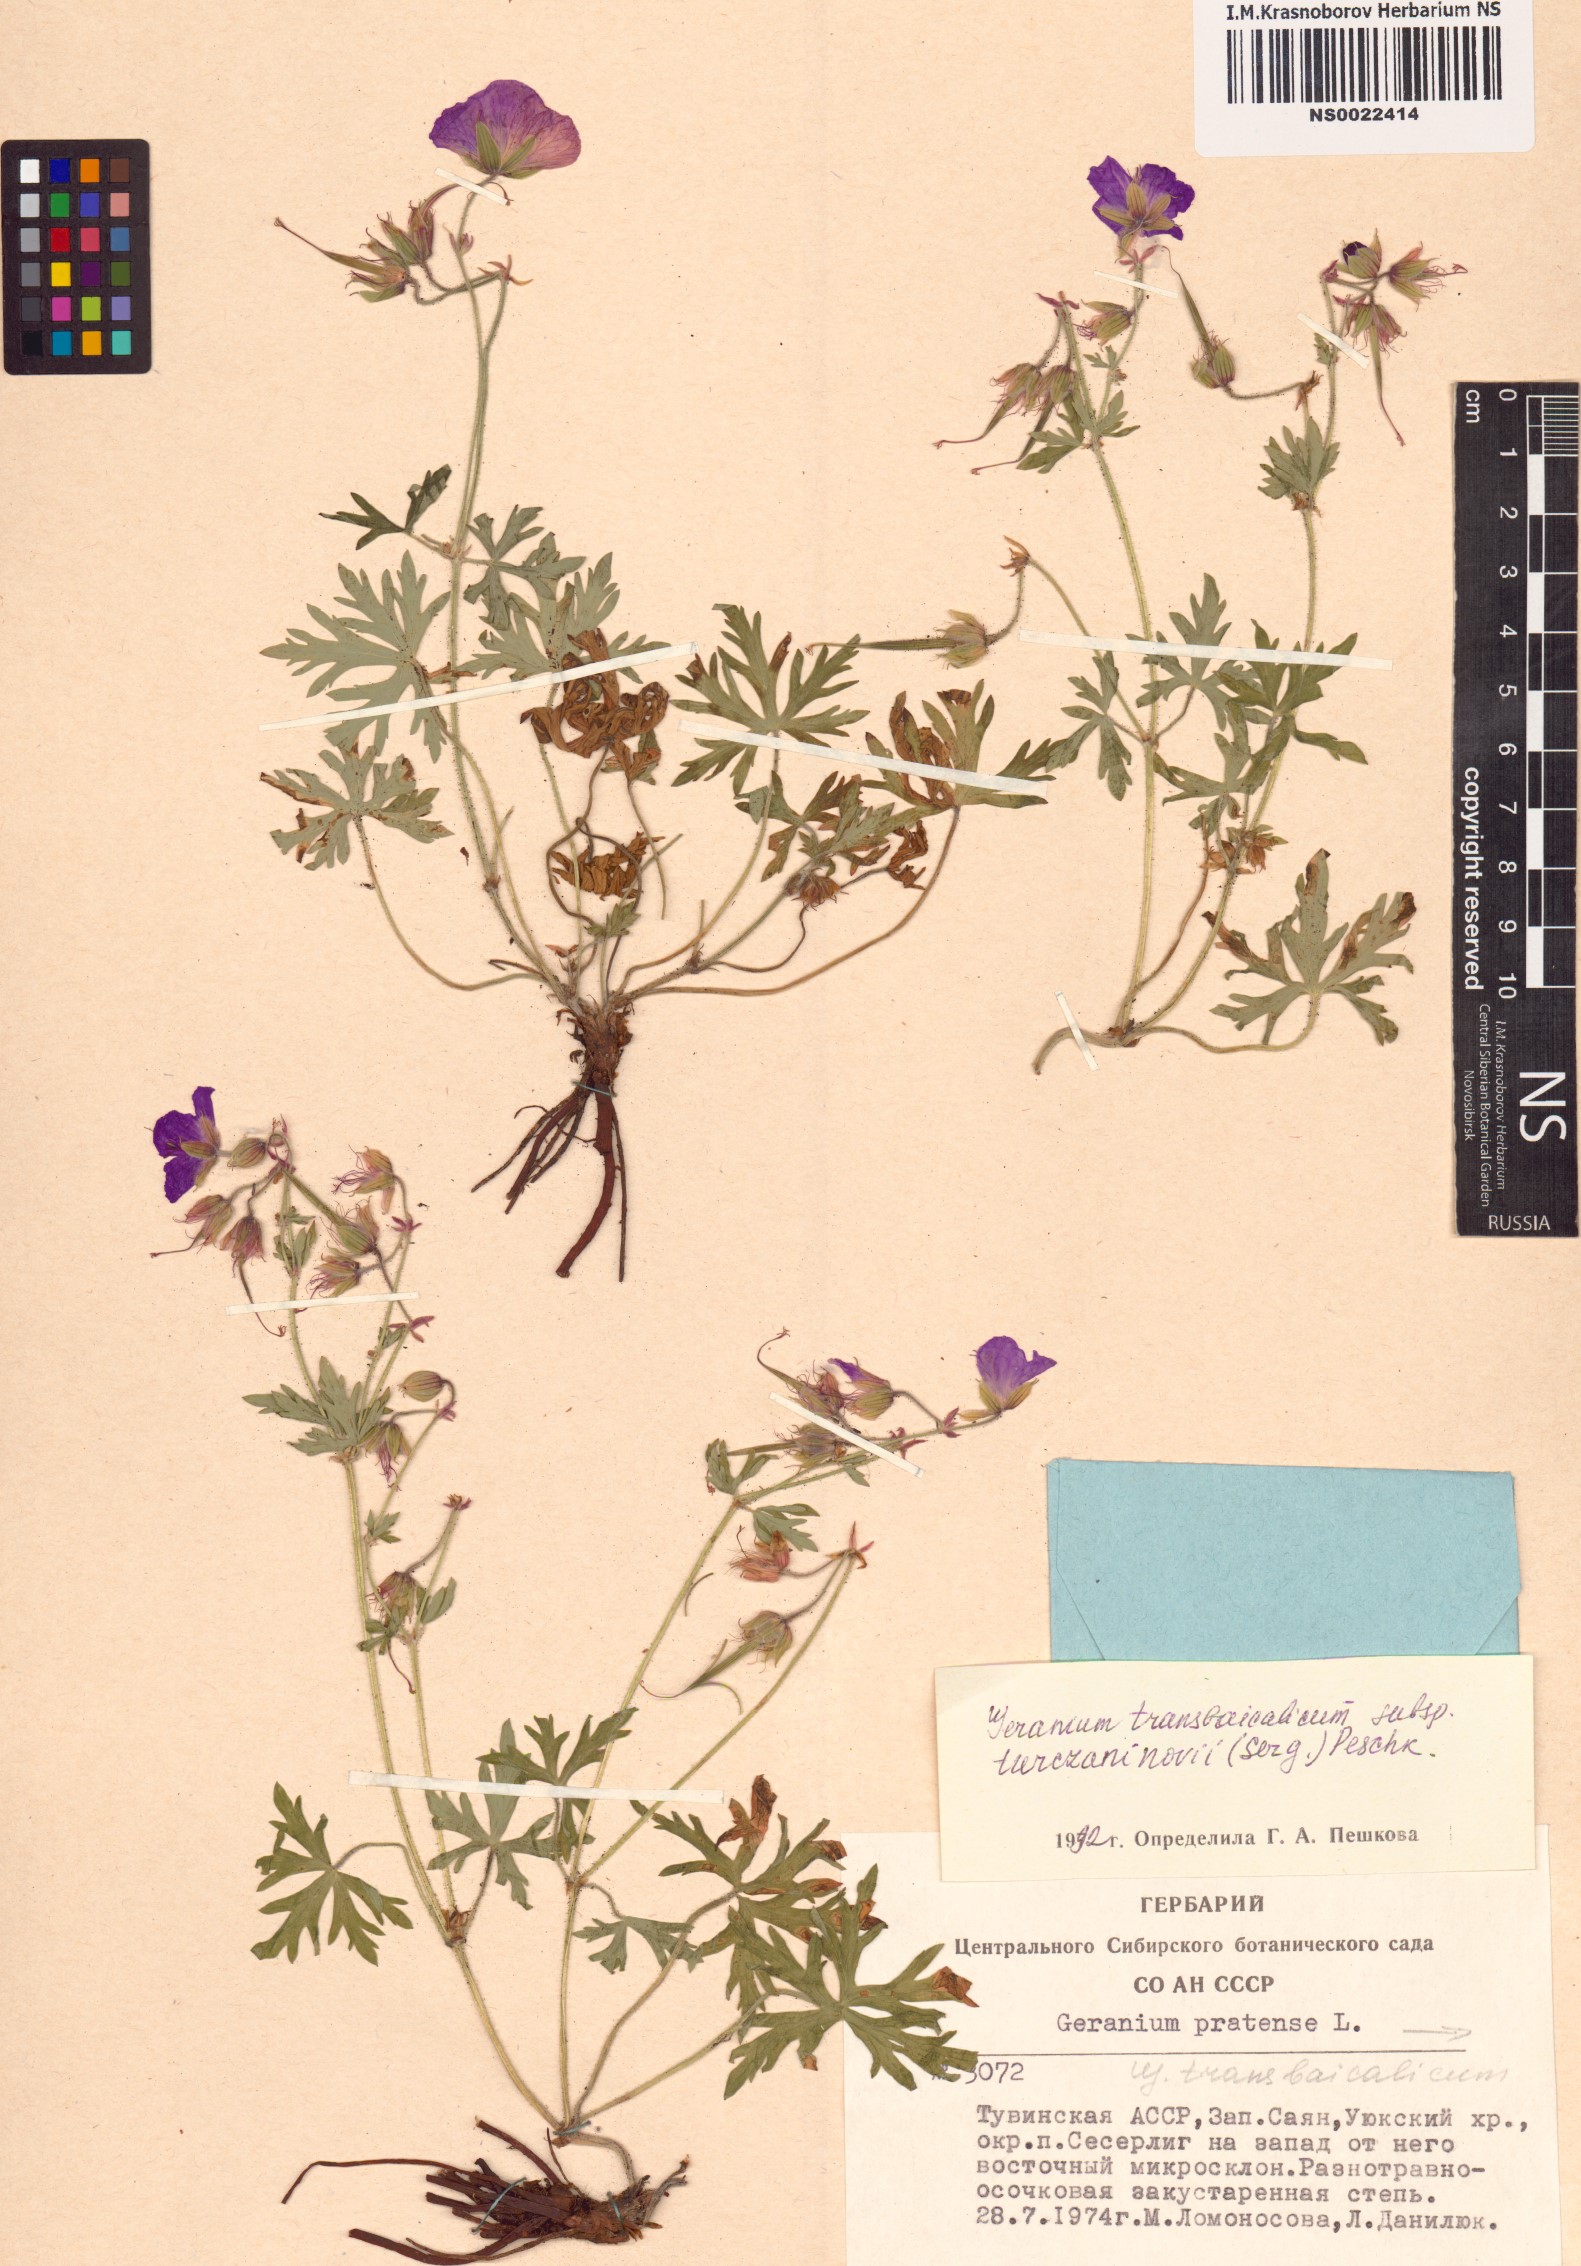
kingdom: Plantae
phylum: Tracheophyta
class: Magnoliopsida
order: Geraniales
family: Geraniaceae
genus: Geranium
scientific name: Geranium pratense
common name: Meadow crane's-bill
